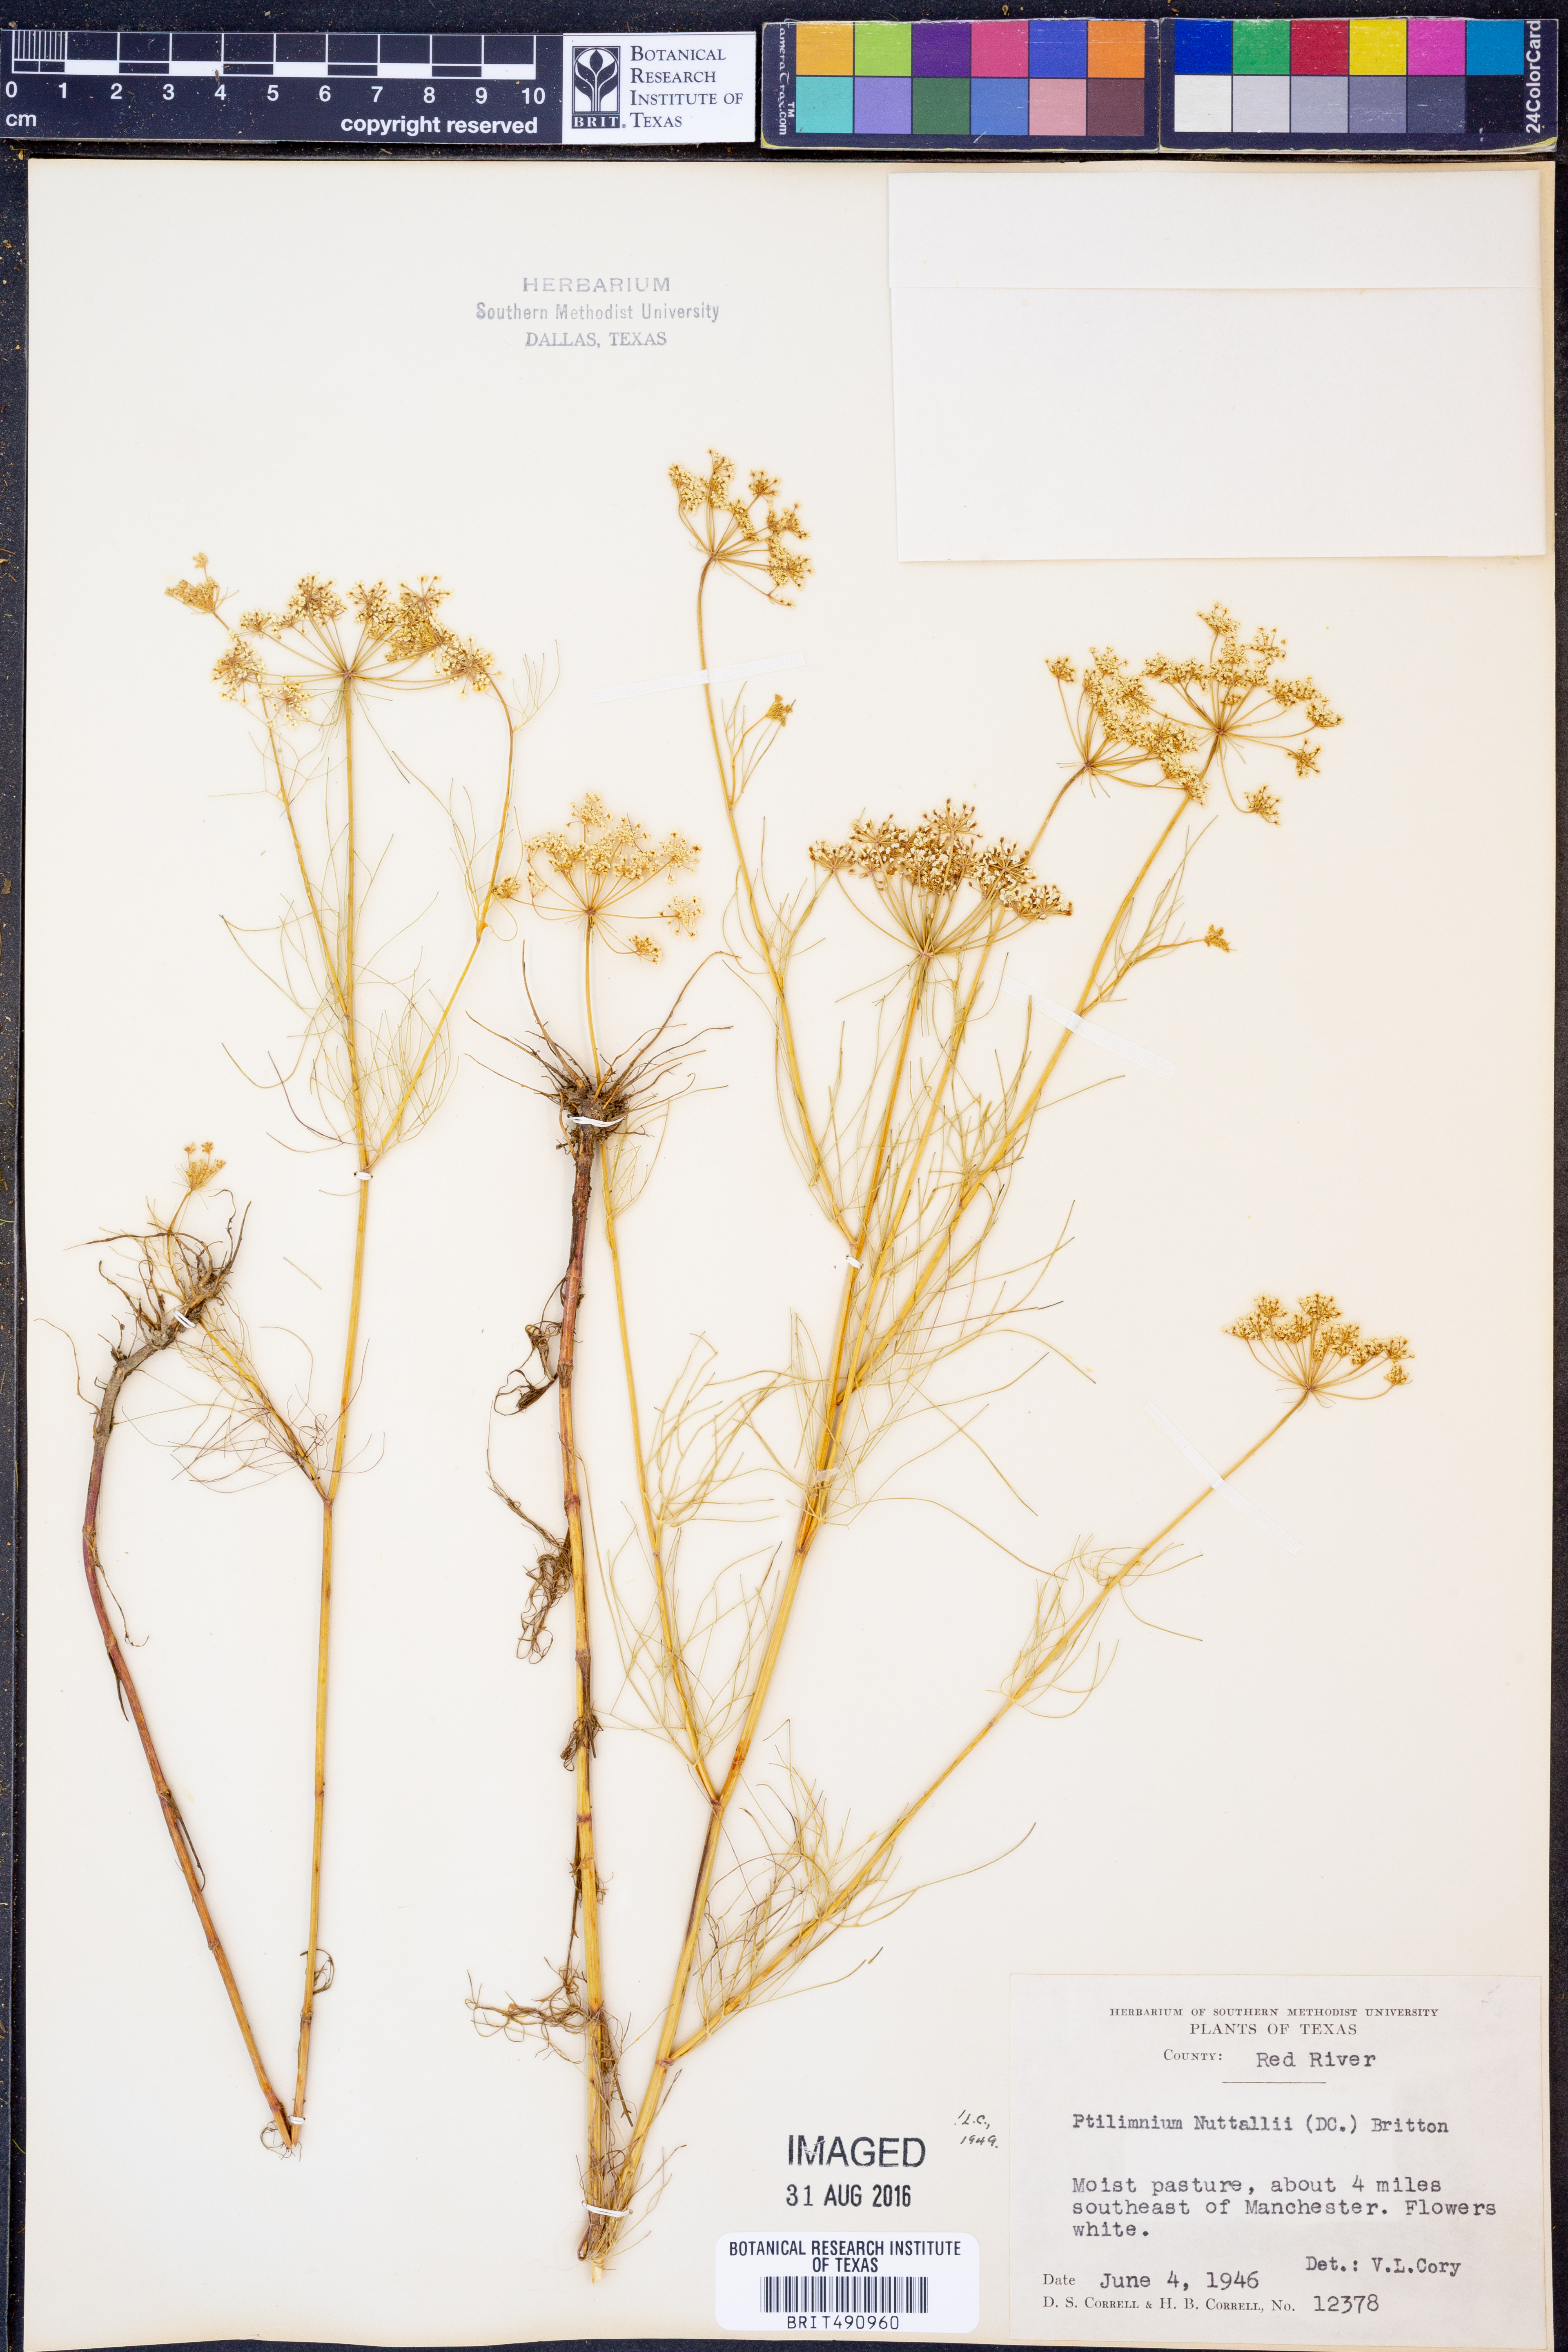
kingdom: Plantae
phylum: Tracheophyta
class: Magnoliopsida
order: Apiales
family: Apiaceae
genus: Ptilimnium
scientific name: Ptilimnium nuttallii
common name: Ozark bishop's-weed
